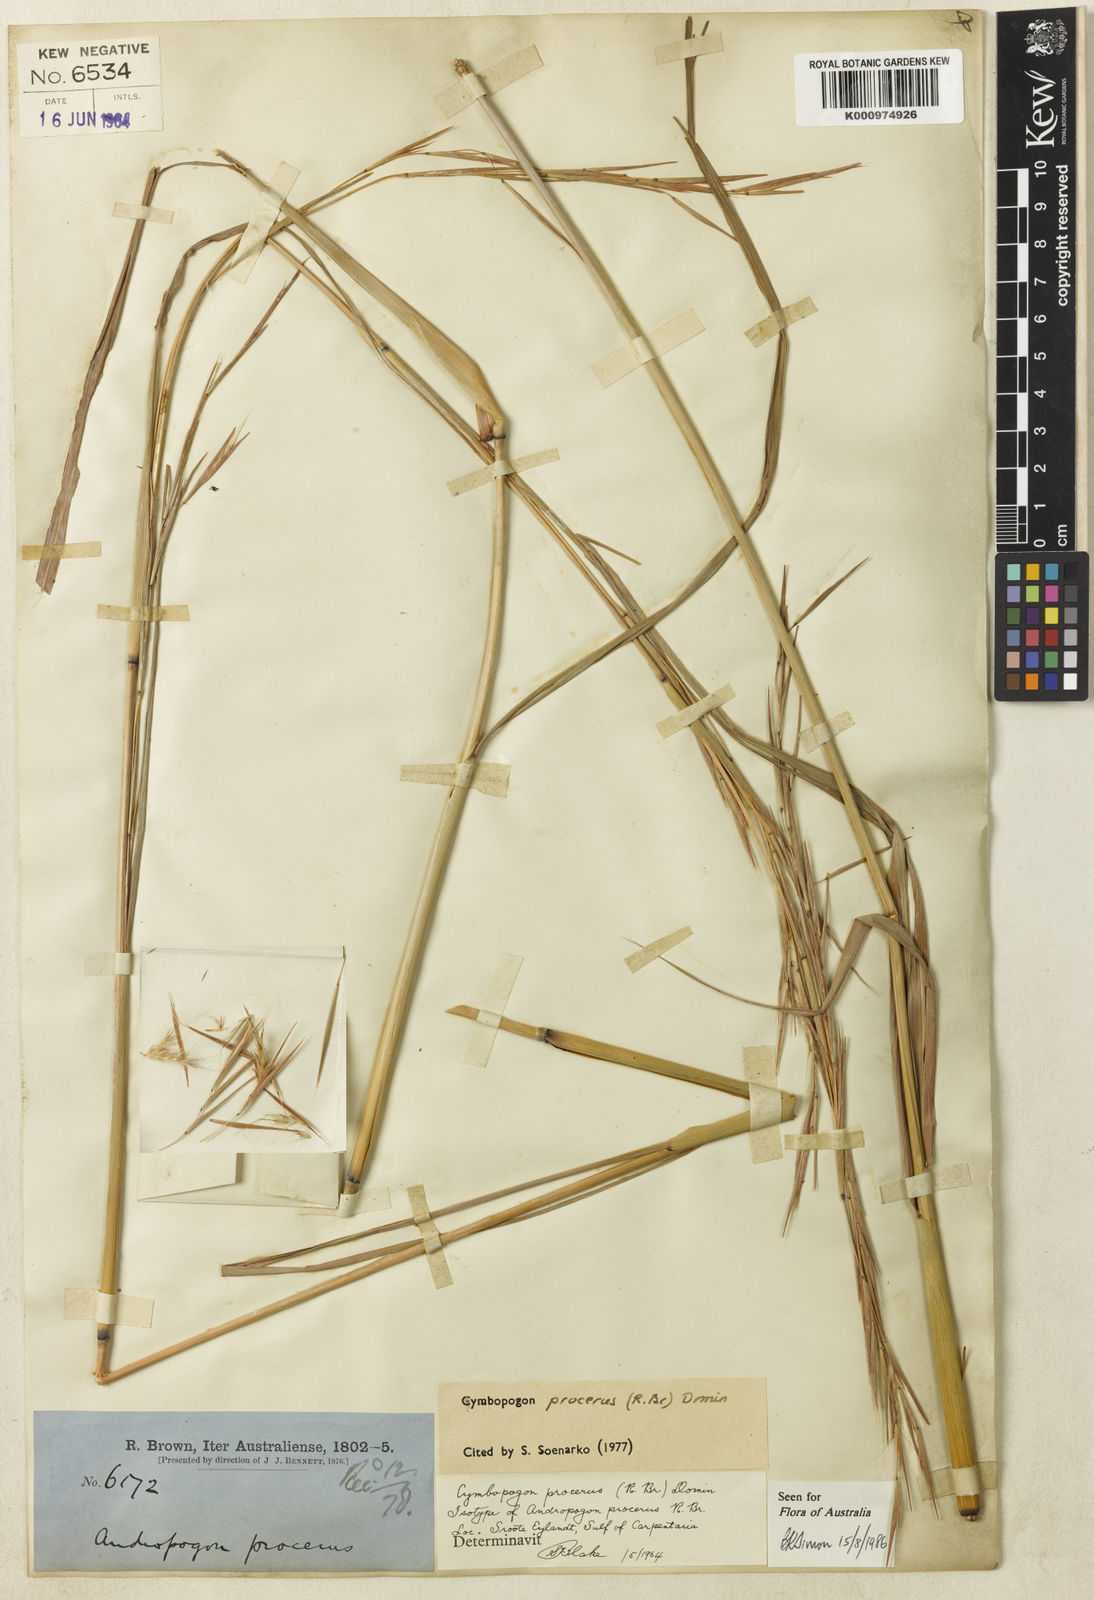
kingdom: Plantae
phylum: Tracheophyta
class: Liliopsida
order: Poales
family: Poaceae
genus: Cymbopogon
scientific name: Cymbopogon procerus
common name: Lemongrass
